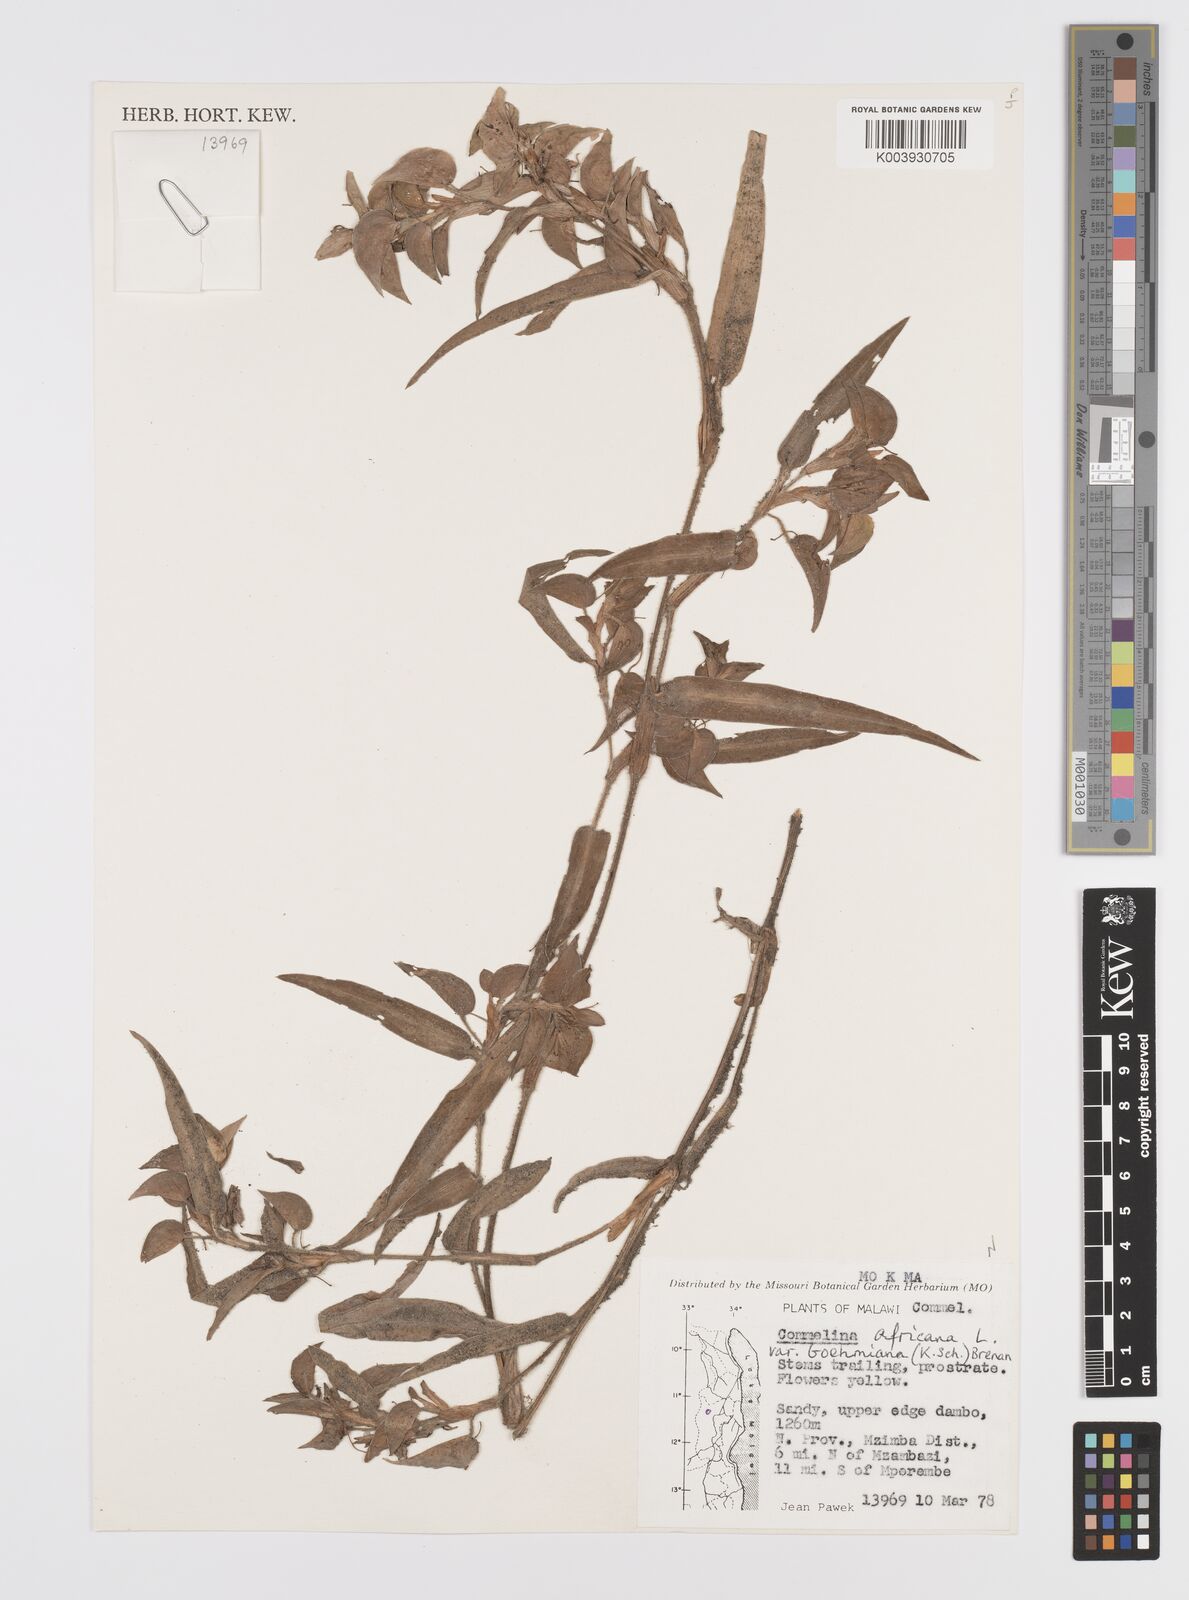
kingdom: Plantae
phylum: Tracheophyta
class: Liliopsida
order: Commelinales
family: Commelinaceae
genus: Commelina
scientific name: Commelina africana
